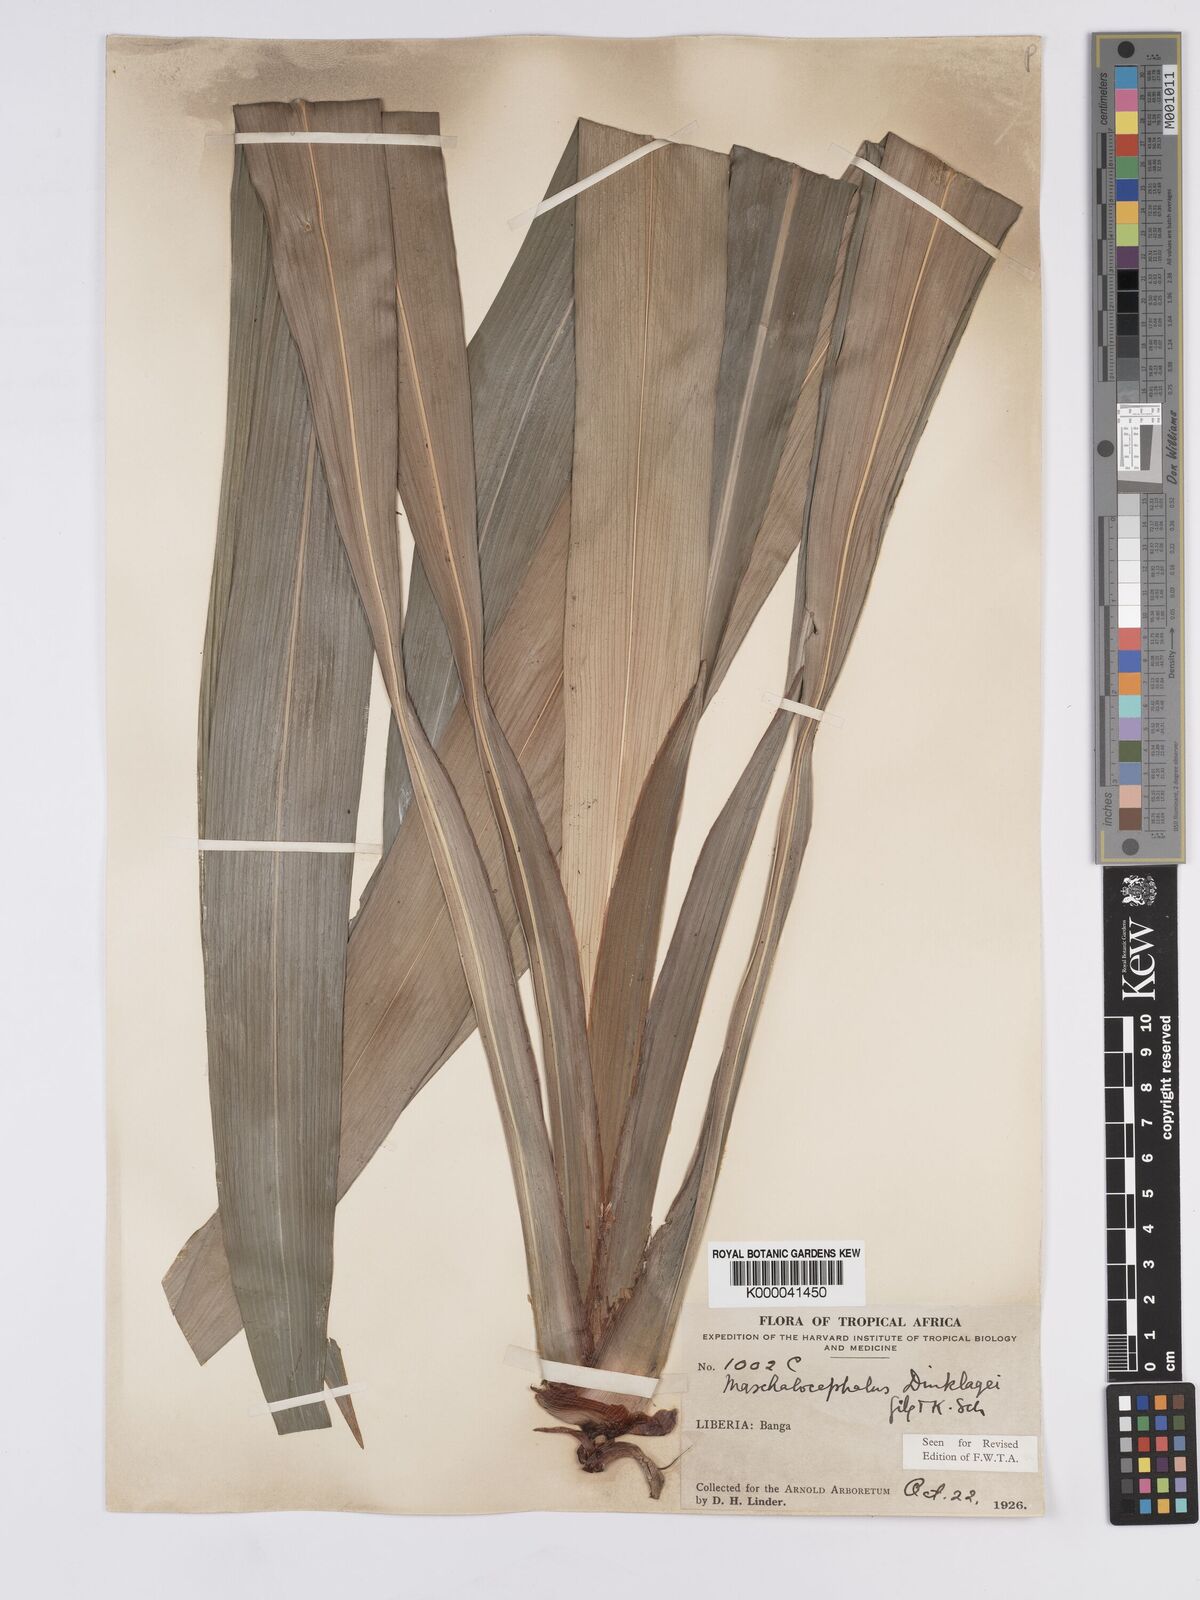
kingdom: Plantae
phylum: Tracheophyta
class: Liliopsida
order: Poales
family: Rapateaceae
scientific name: Rapateaceae
